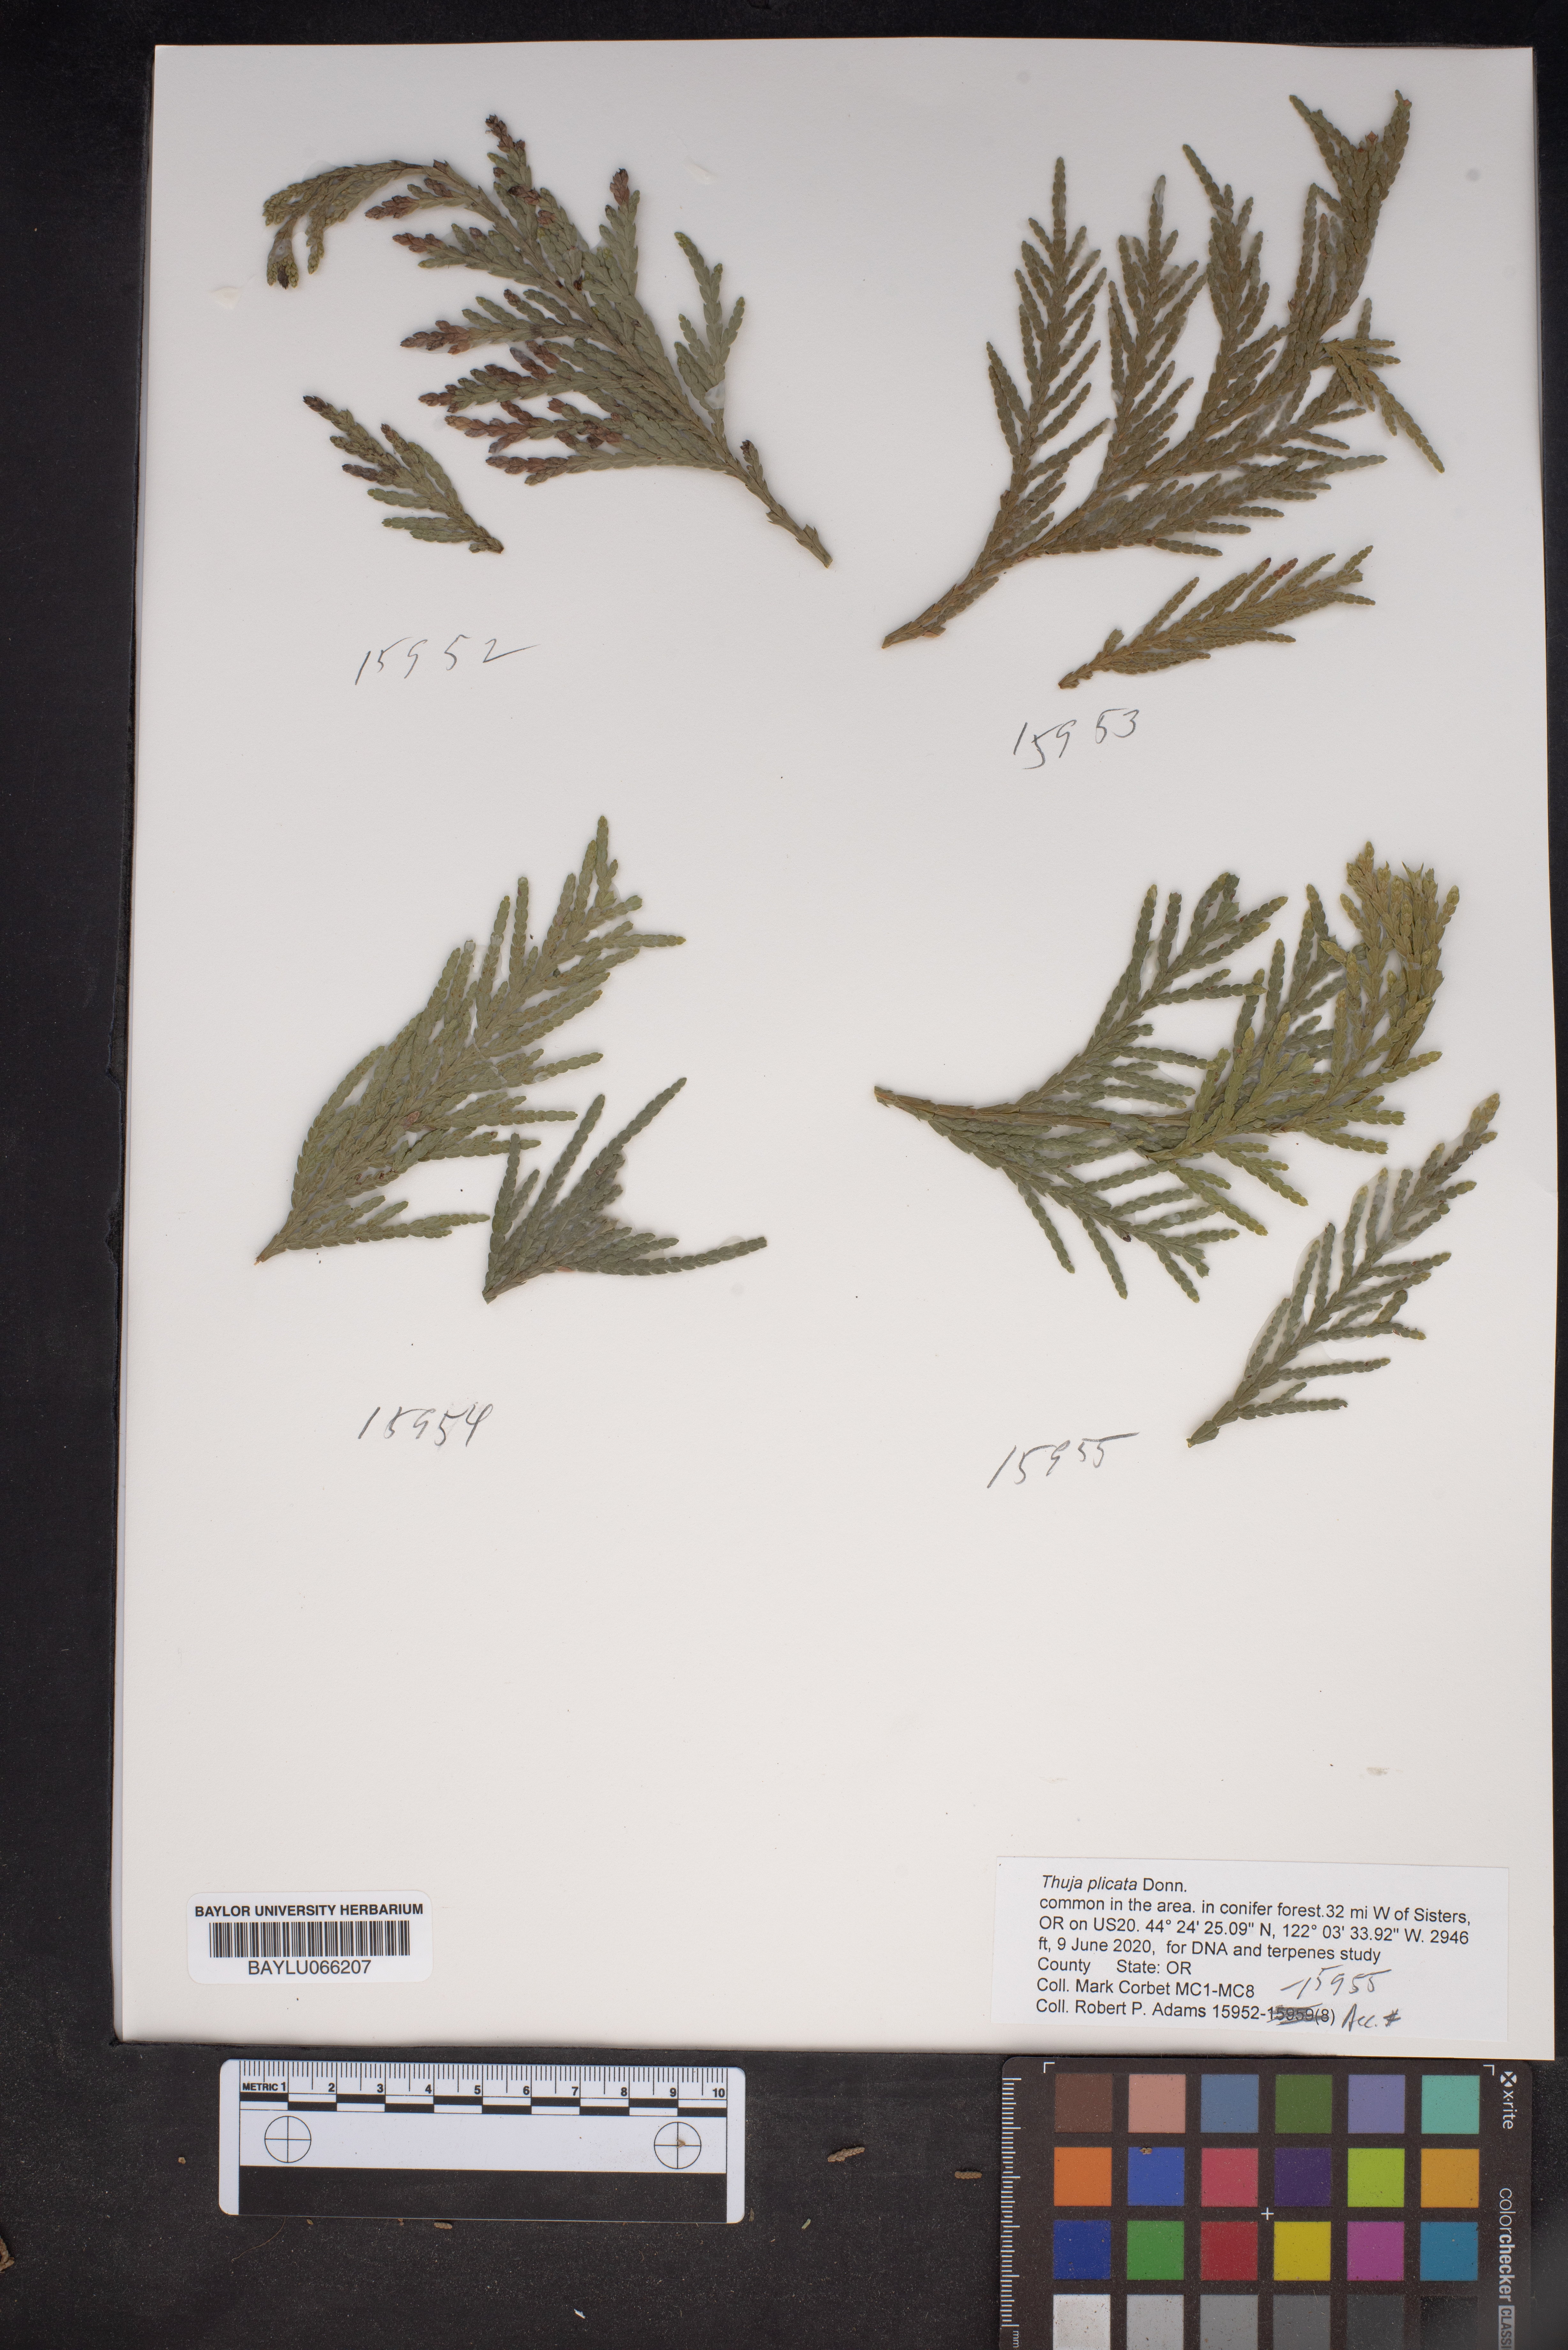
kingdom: Plantae
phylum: Tracheophyta
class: Pinopsida
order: Pinales
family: Cupressaceae
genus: Thuja
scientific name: Thuja plicata
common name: Western red-cedar
